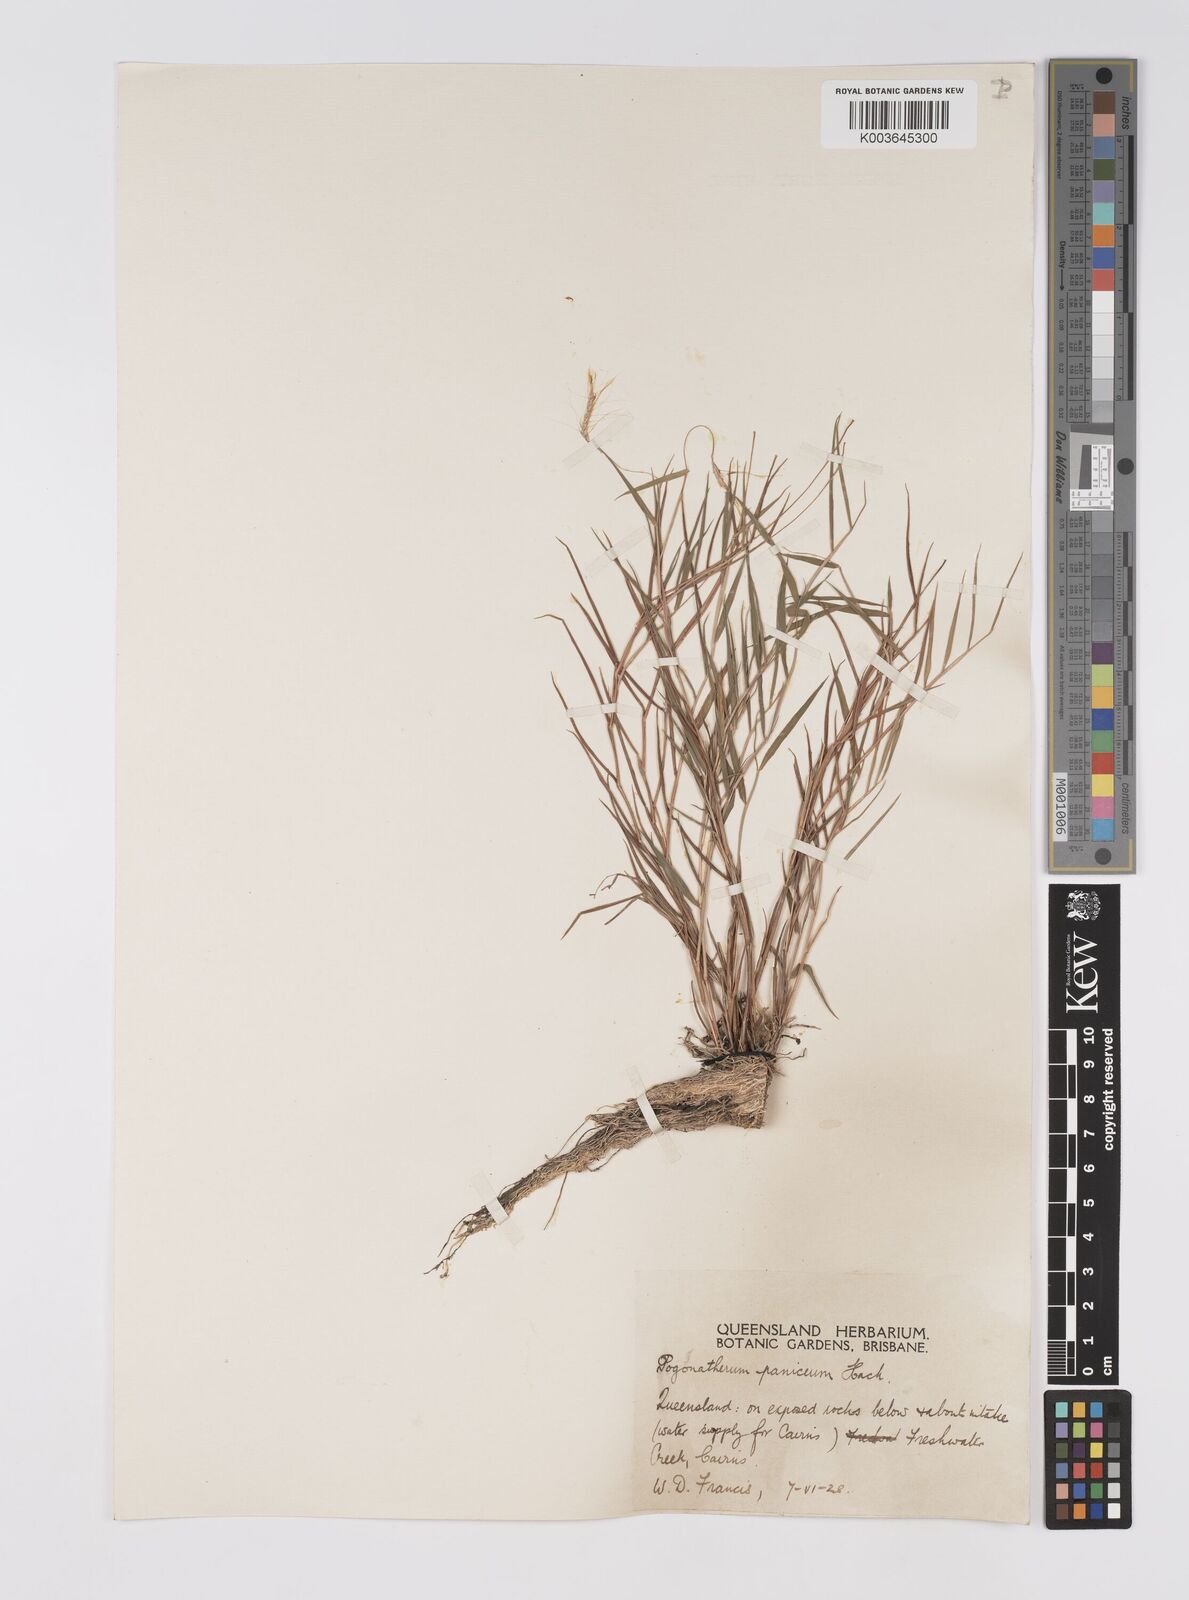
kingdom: Plantae
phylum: Tracheophyta
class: Liliopsida
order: Poales
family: Poaceae
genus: Pogonatherum
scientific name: Pogonatherum paniceum
